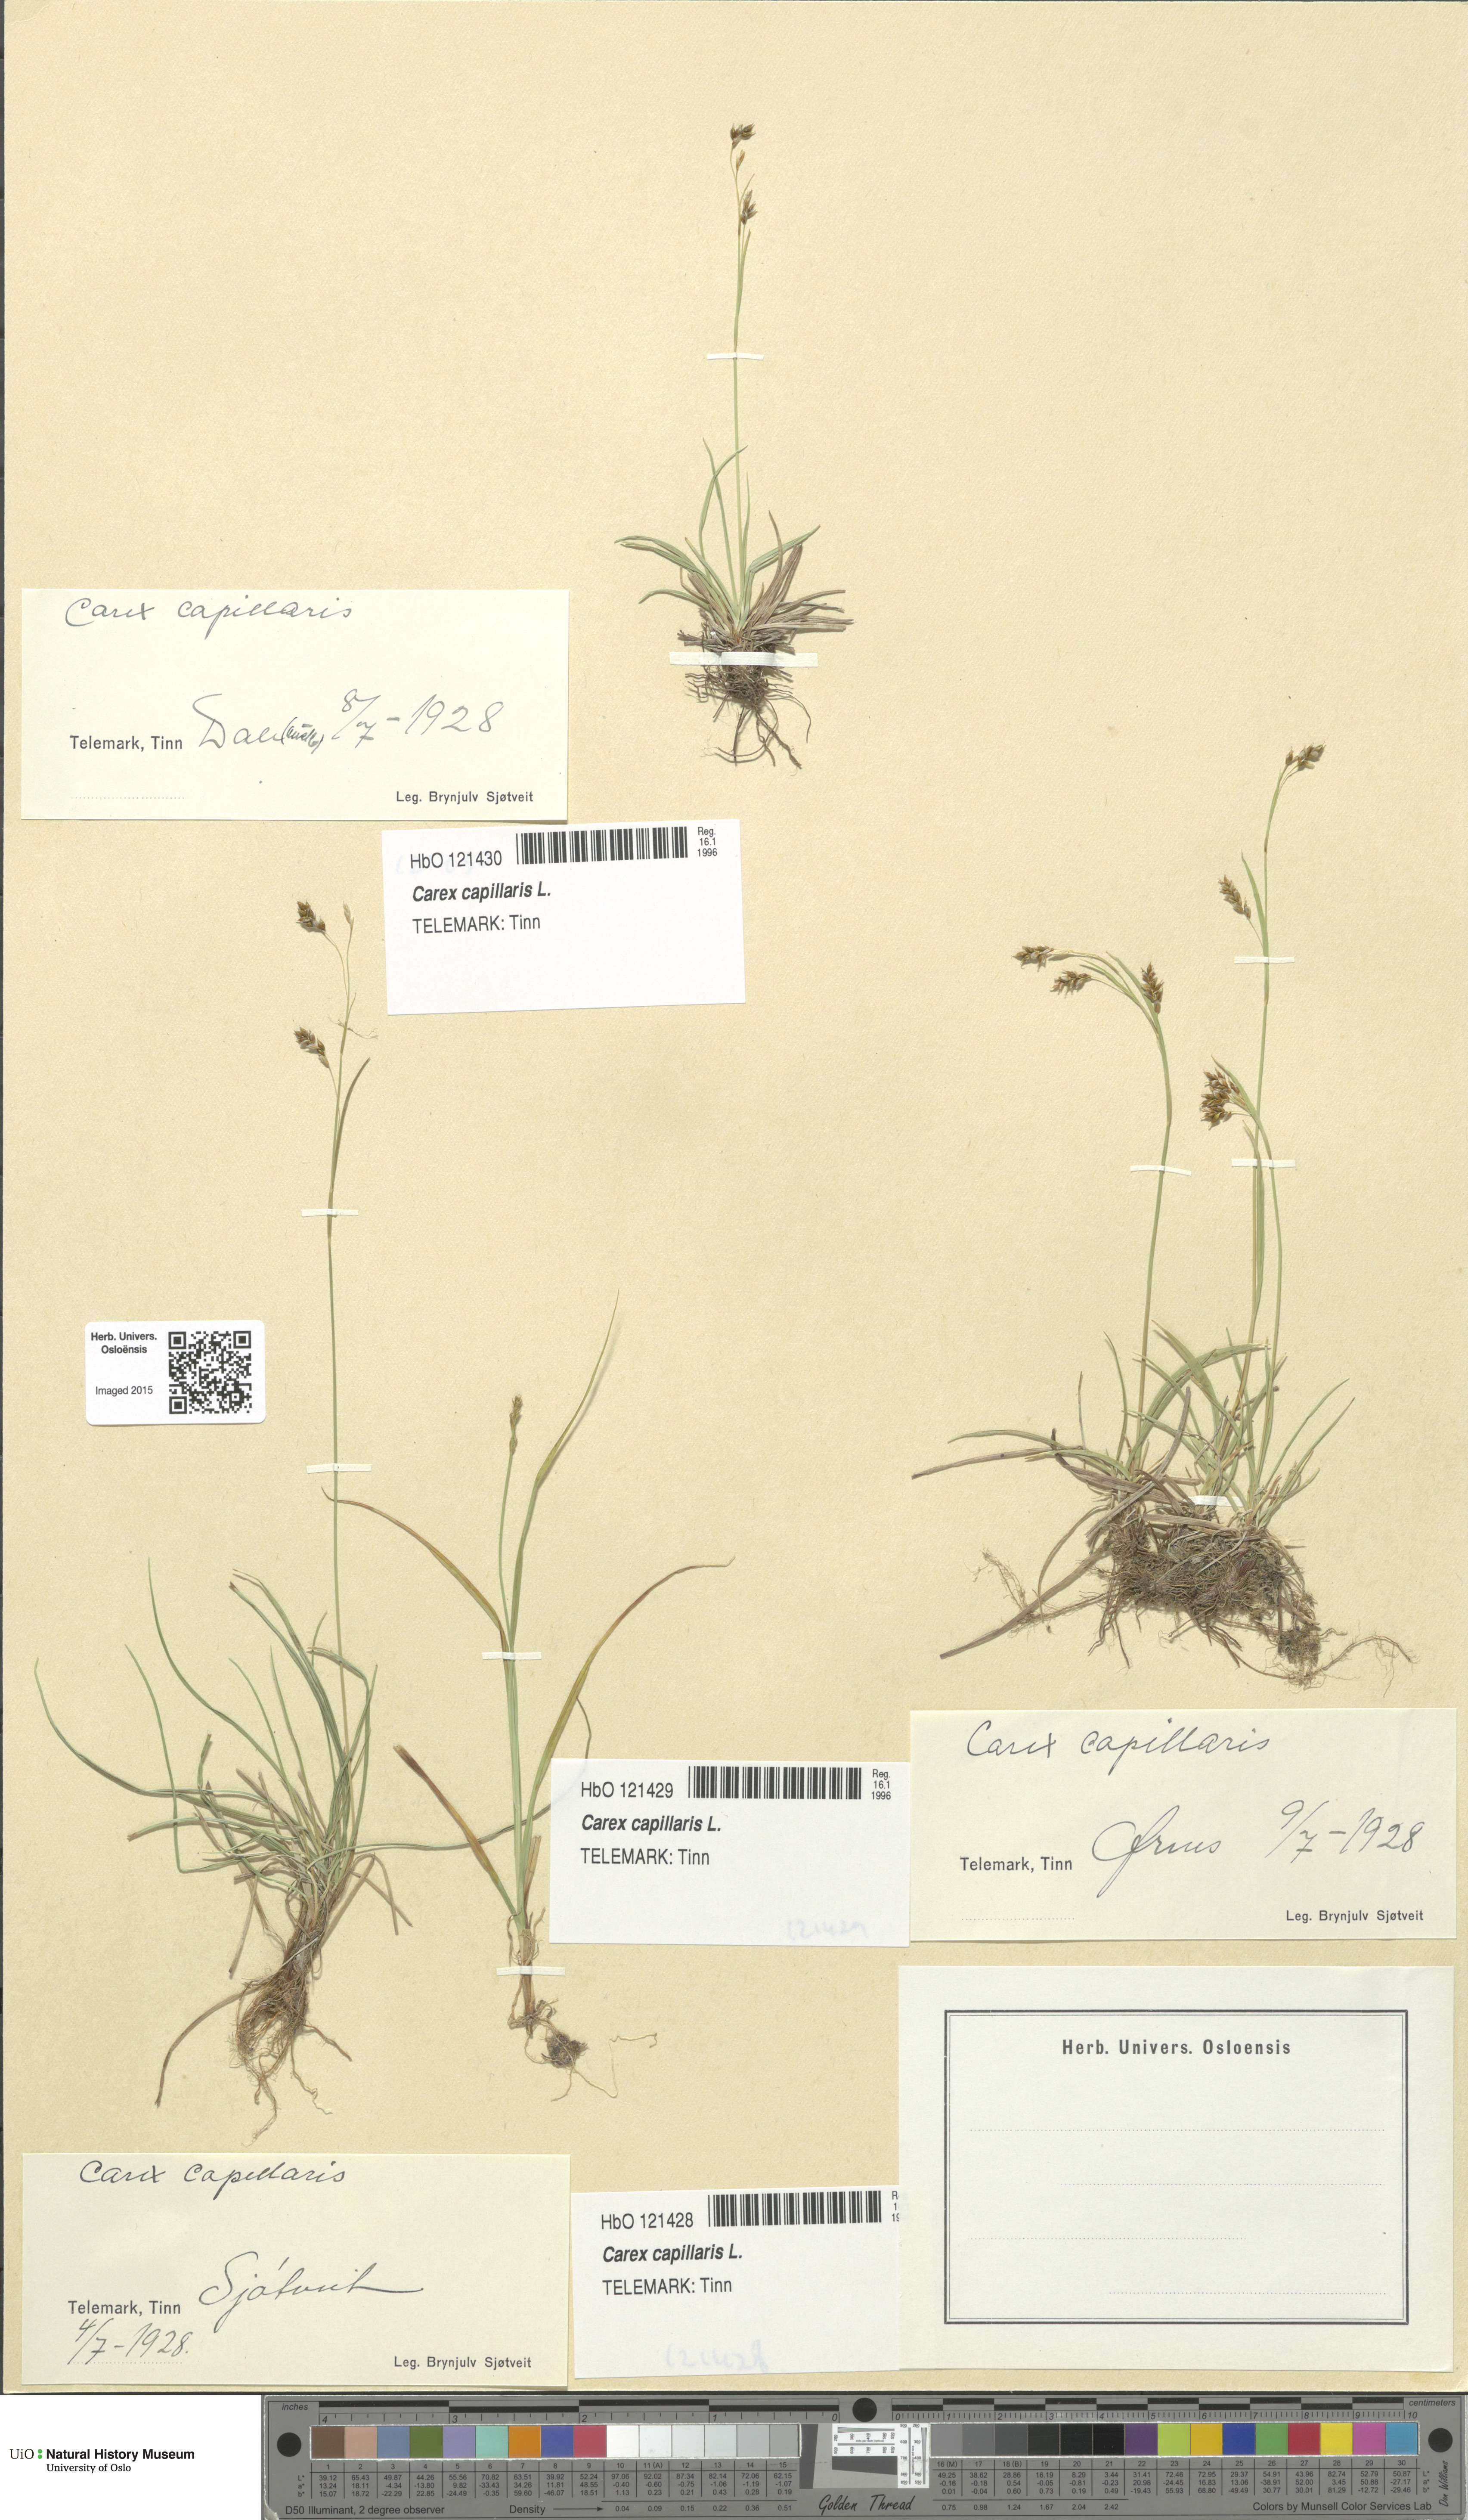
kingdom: Plantae
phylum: Tracheophyta
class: Liliopsida
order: Poales
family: Cyperaceae
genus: Carex
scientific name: Carex capillaris
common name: Hair sedge
